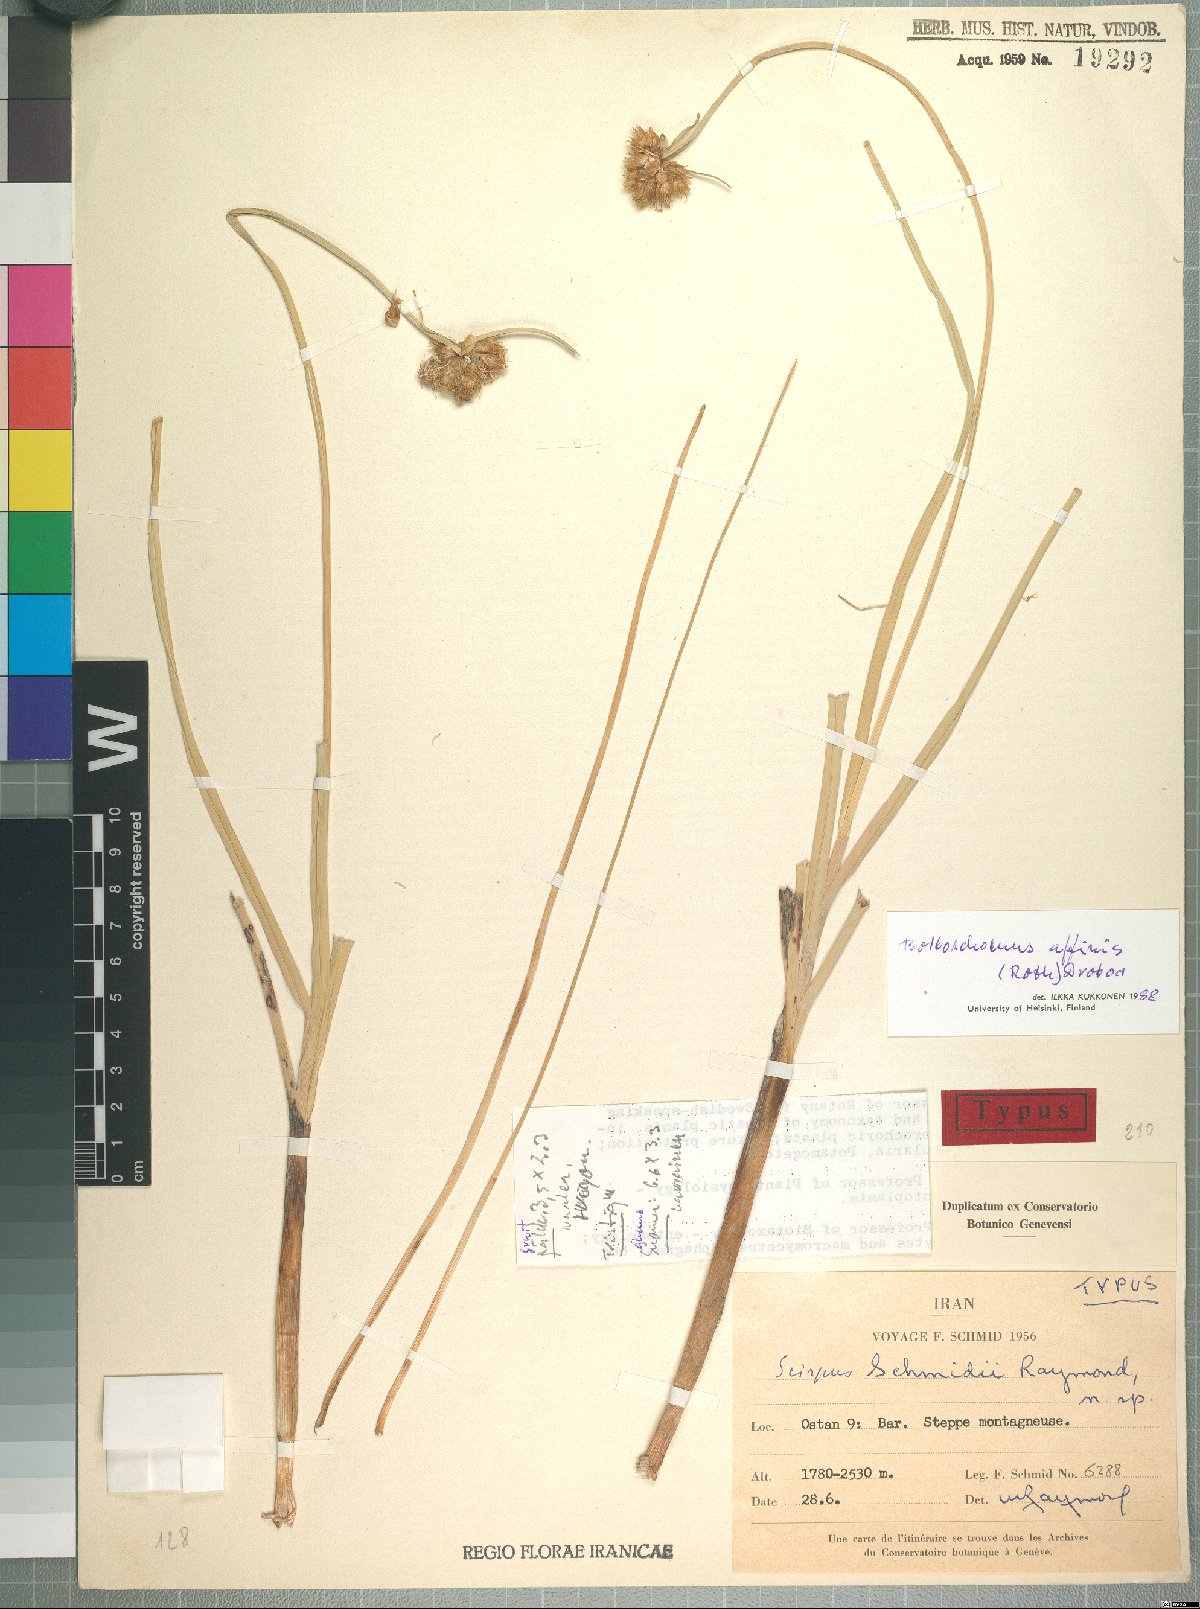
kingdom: Plantae
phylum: Tracheophyta
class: Liliopsida
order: Poales
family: Cyperaceae
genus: Bolboschoenus
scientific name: Bolboschoenus maritimus
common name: Sea club-rush
